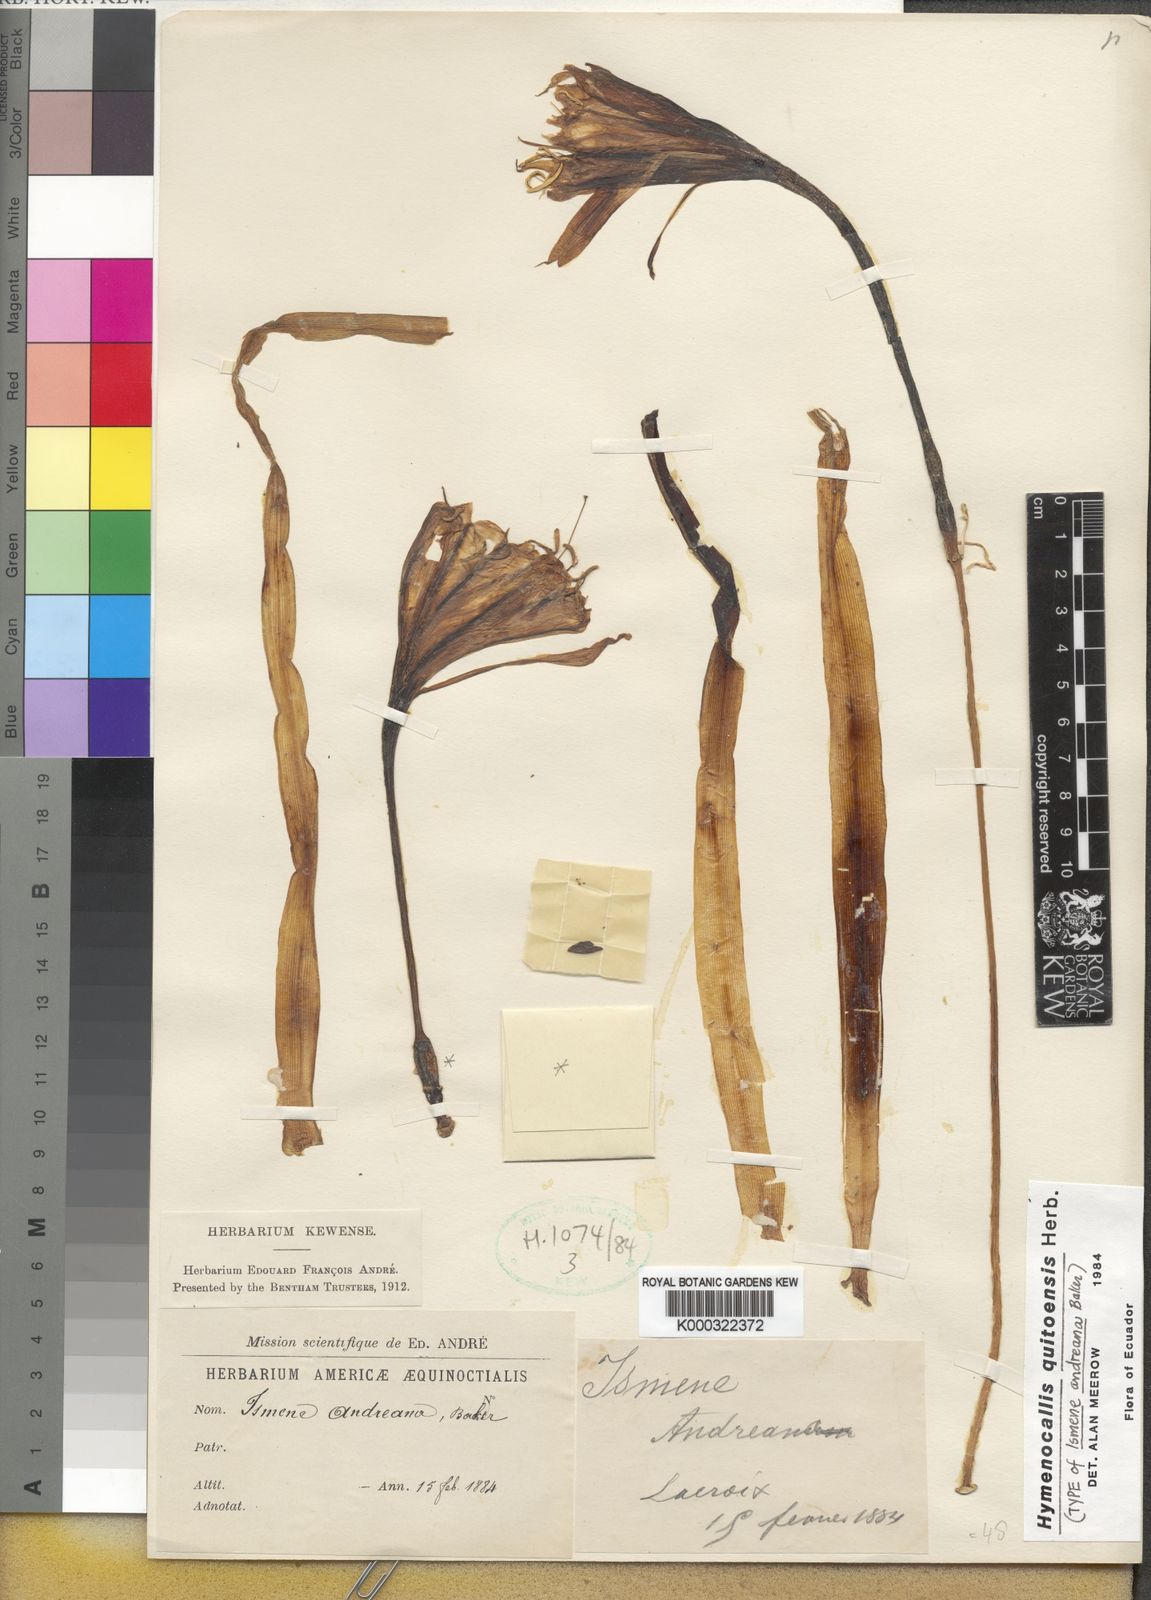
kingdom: Plantae
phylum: Tracheophyta
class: Liliopsida
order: Asparagales
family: Amaryllidaceae
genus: Leptochiton
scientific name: Leptochiton quitoensis
